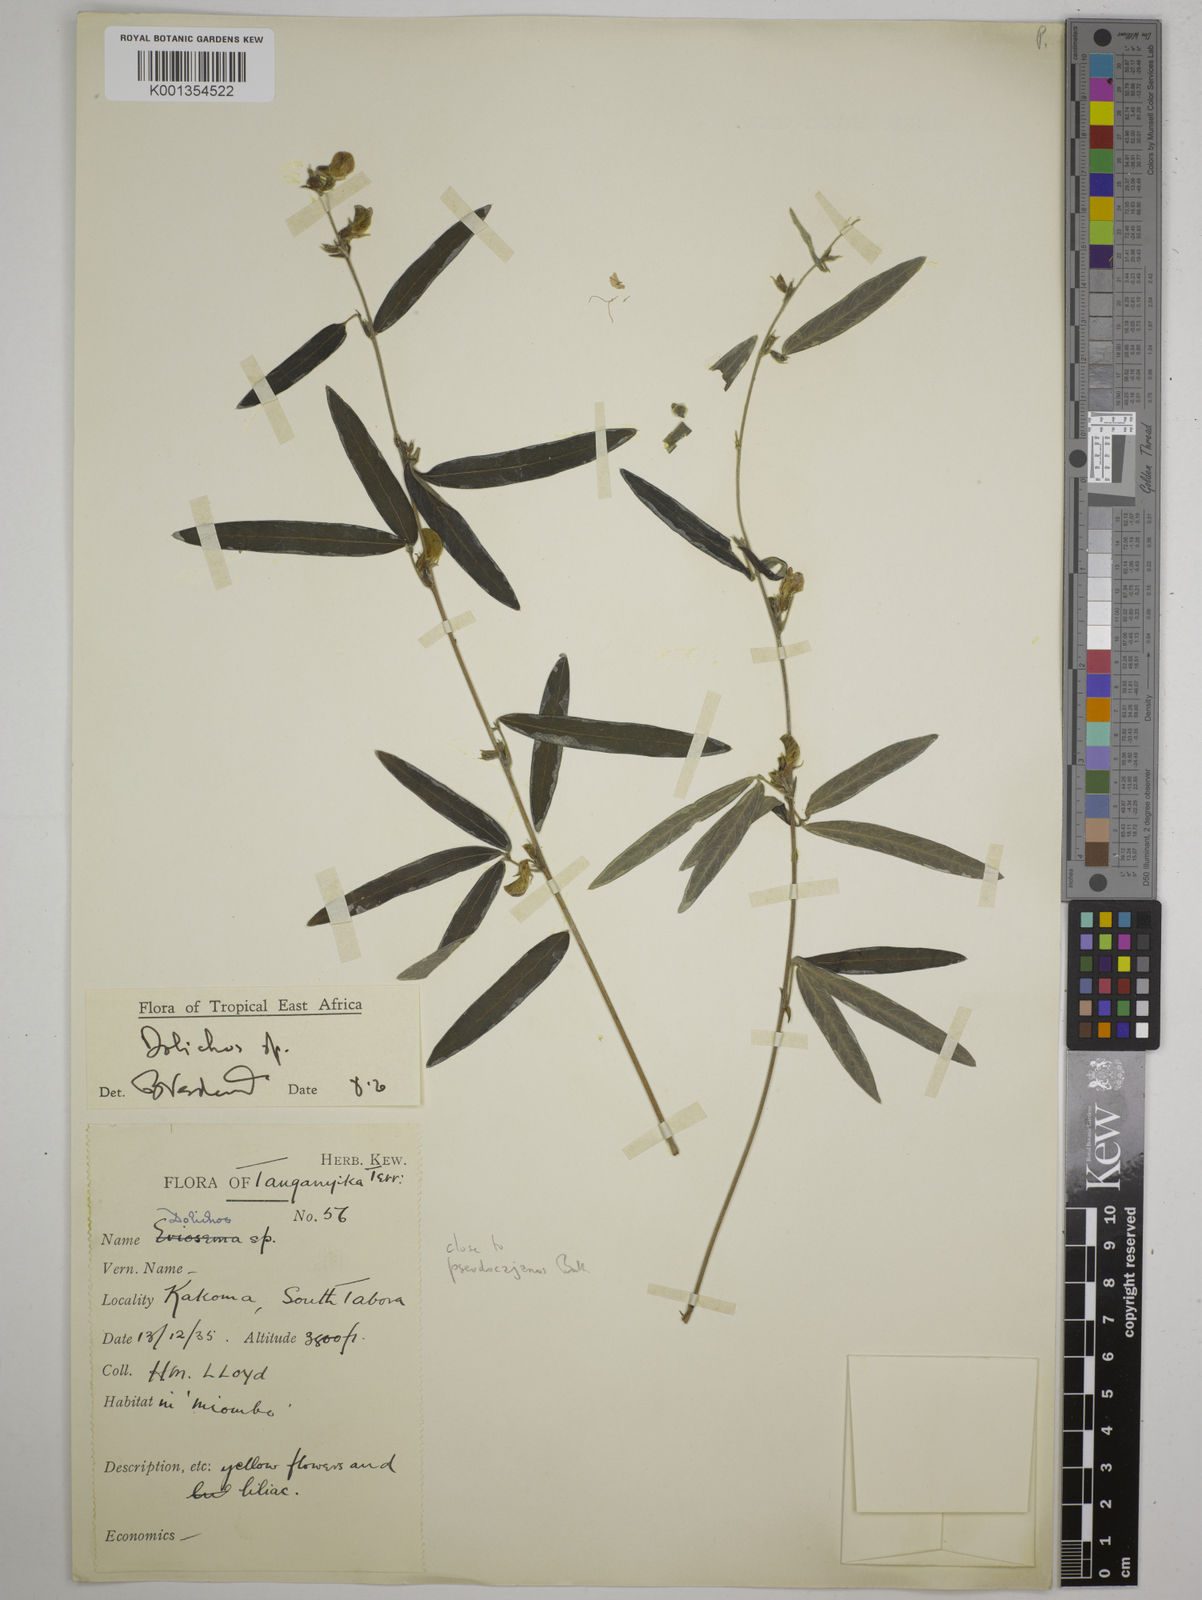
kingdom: Plantae
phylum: Tracheophyta
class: Magnoliopsida
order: Fabales
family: Fabaceae
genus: Dolichos
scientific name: Dolichos
